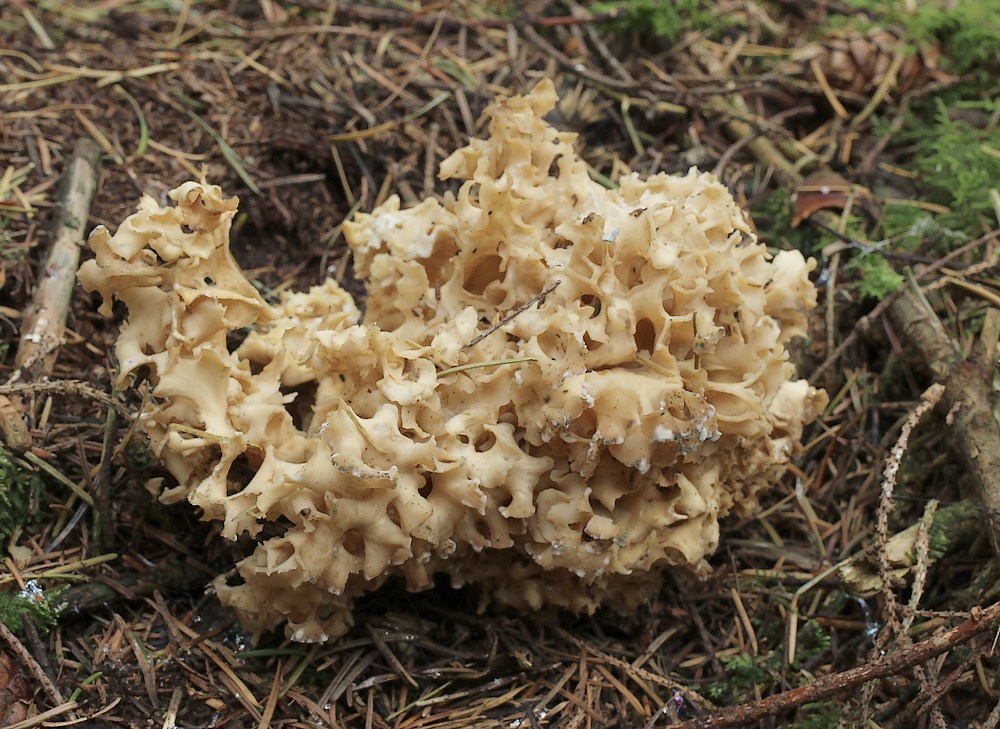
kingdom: Fungi
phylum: Basidiomycota
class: Agaricomycetes
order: Polyporales
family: Sparassidaceae
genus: Sparassis
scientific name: Sparassis crispa
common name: kruset blomkålssvamp
